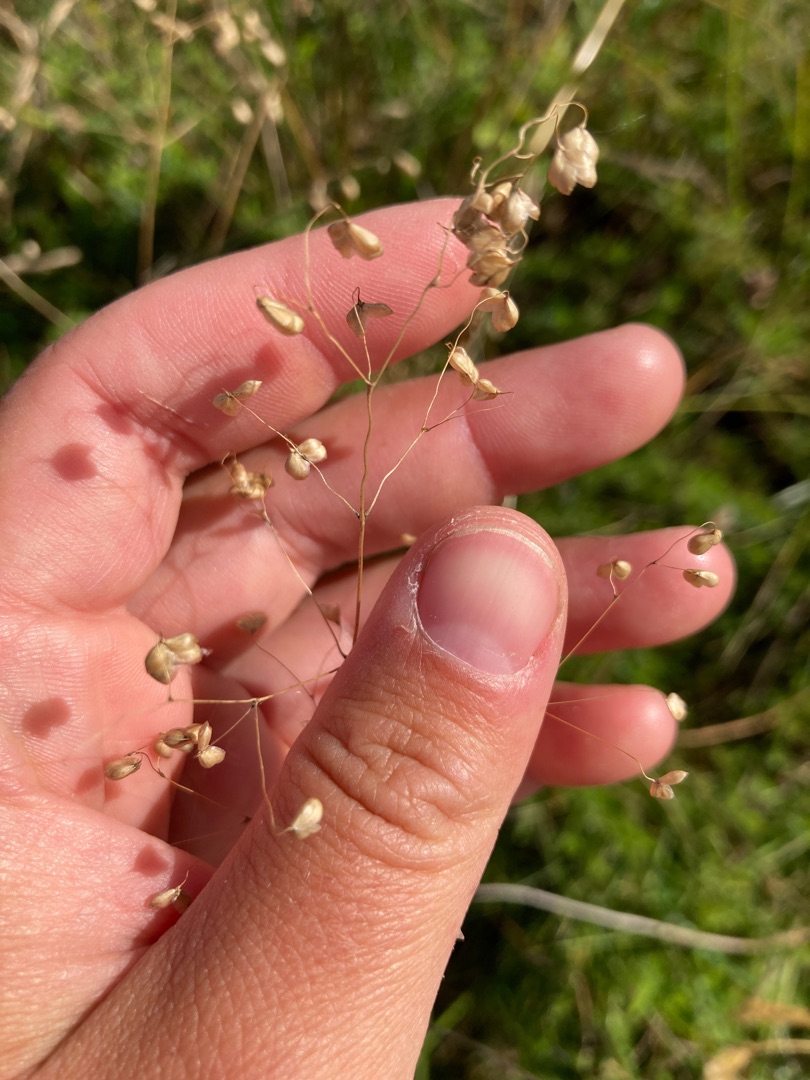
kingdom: Plantae
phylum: Tracheophyta
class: Liliopsida
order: Poales
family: Poaceae
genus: Briza
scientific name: Briza media
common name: Hjertegræs
